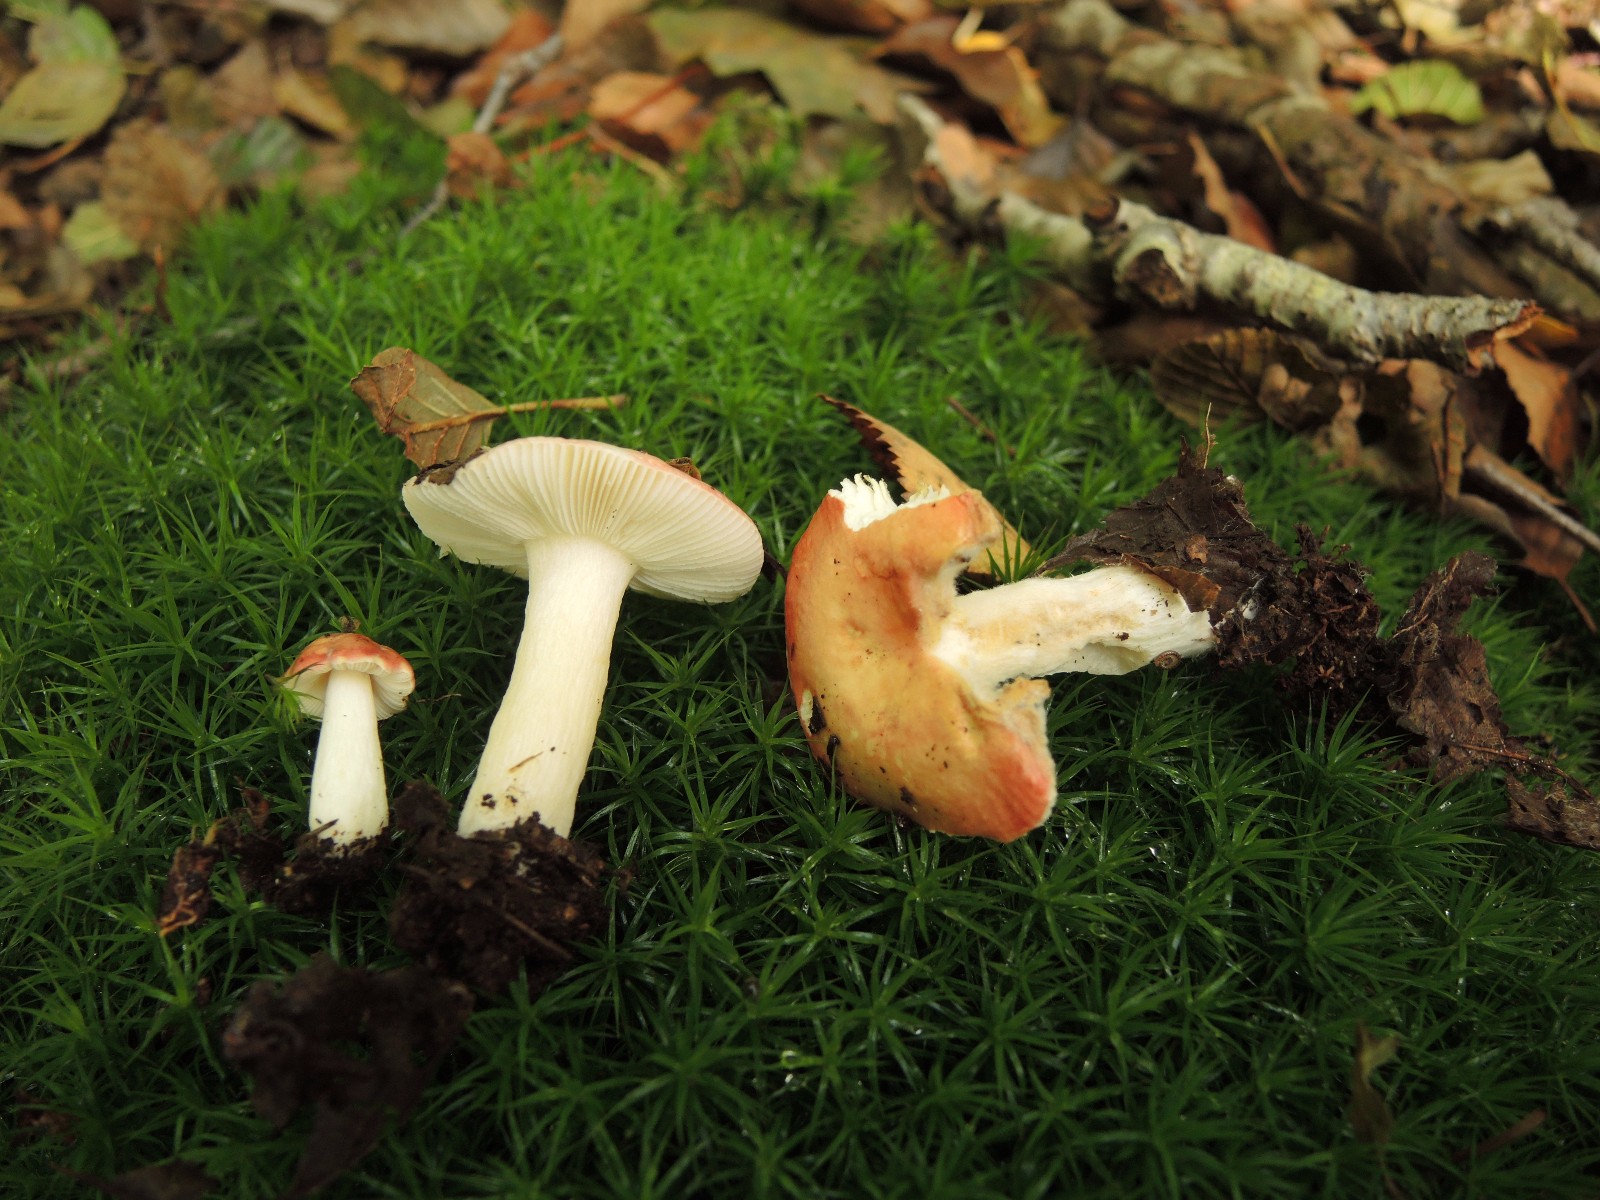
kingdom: Fungi
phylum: Basidiomycota
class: Agaricomycetes
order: Russulales
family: Russulaceae
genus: Russula
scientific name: Russula betularum
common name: bleg gift-skørhat
